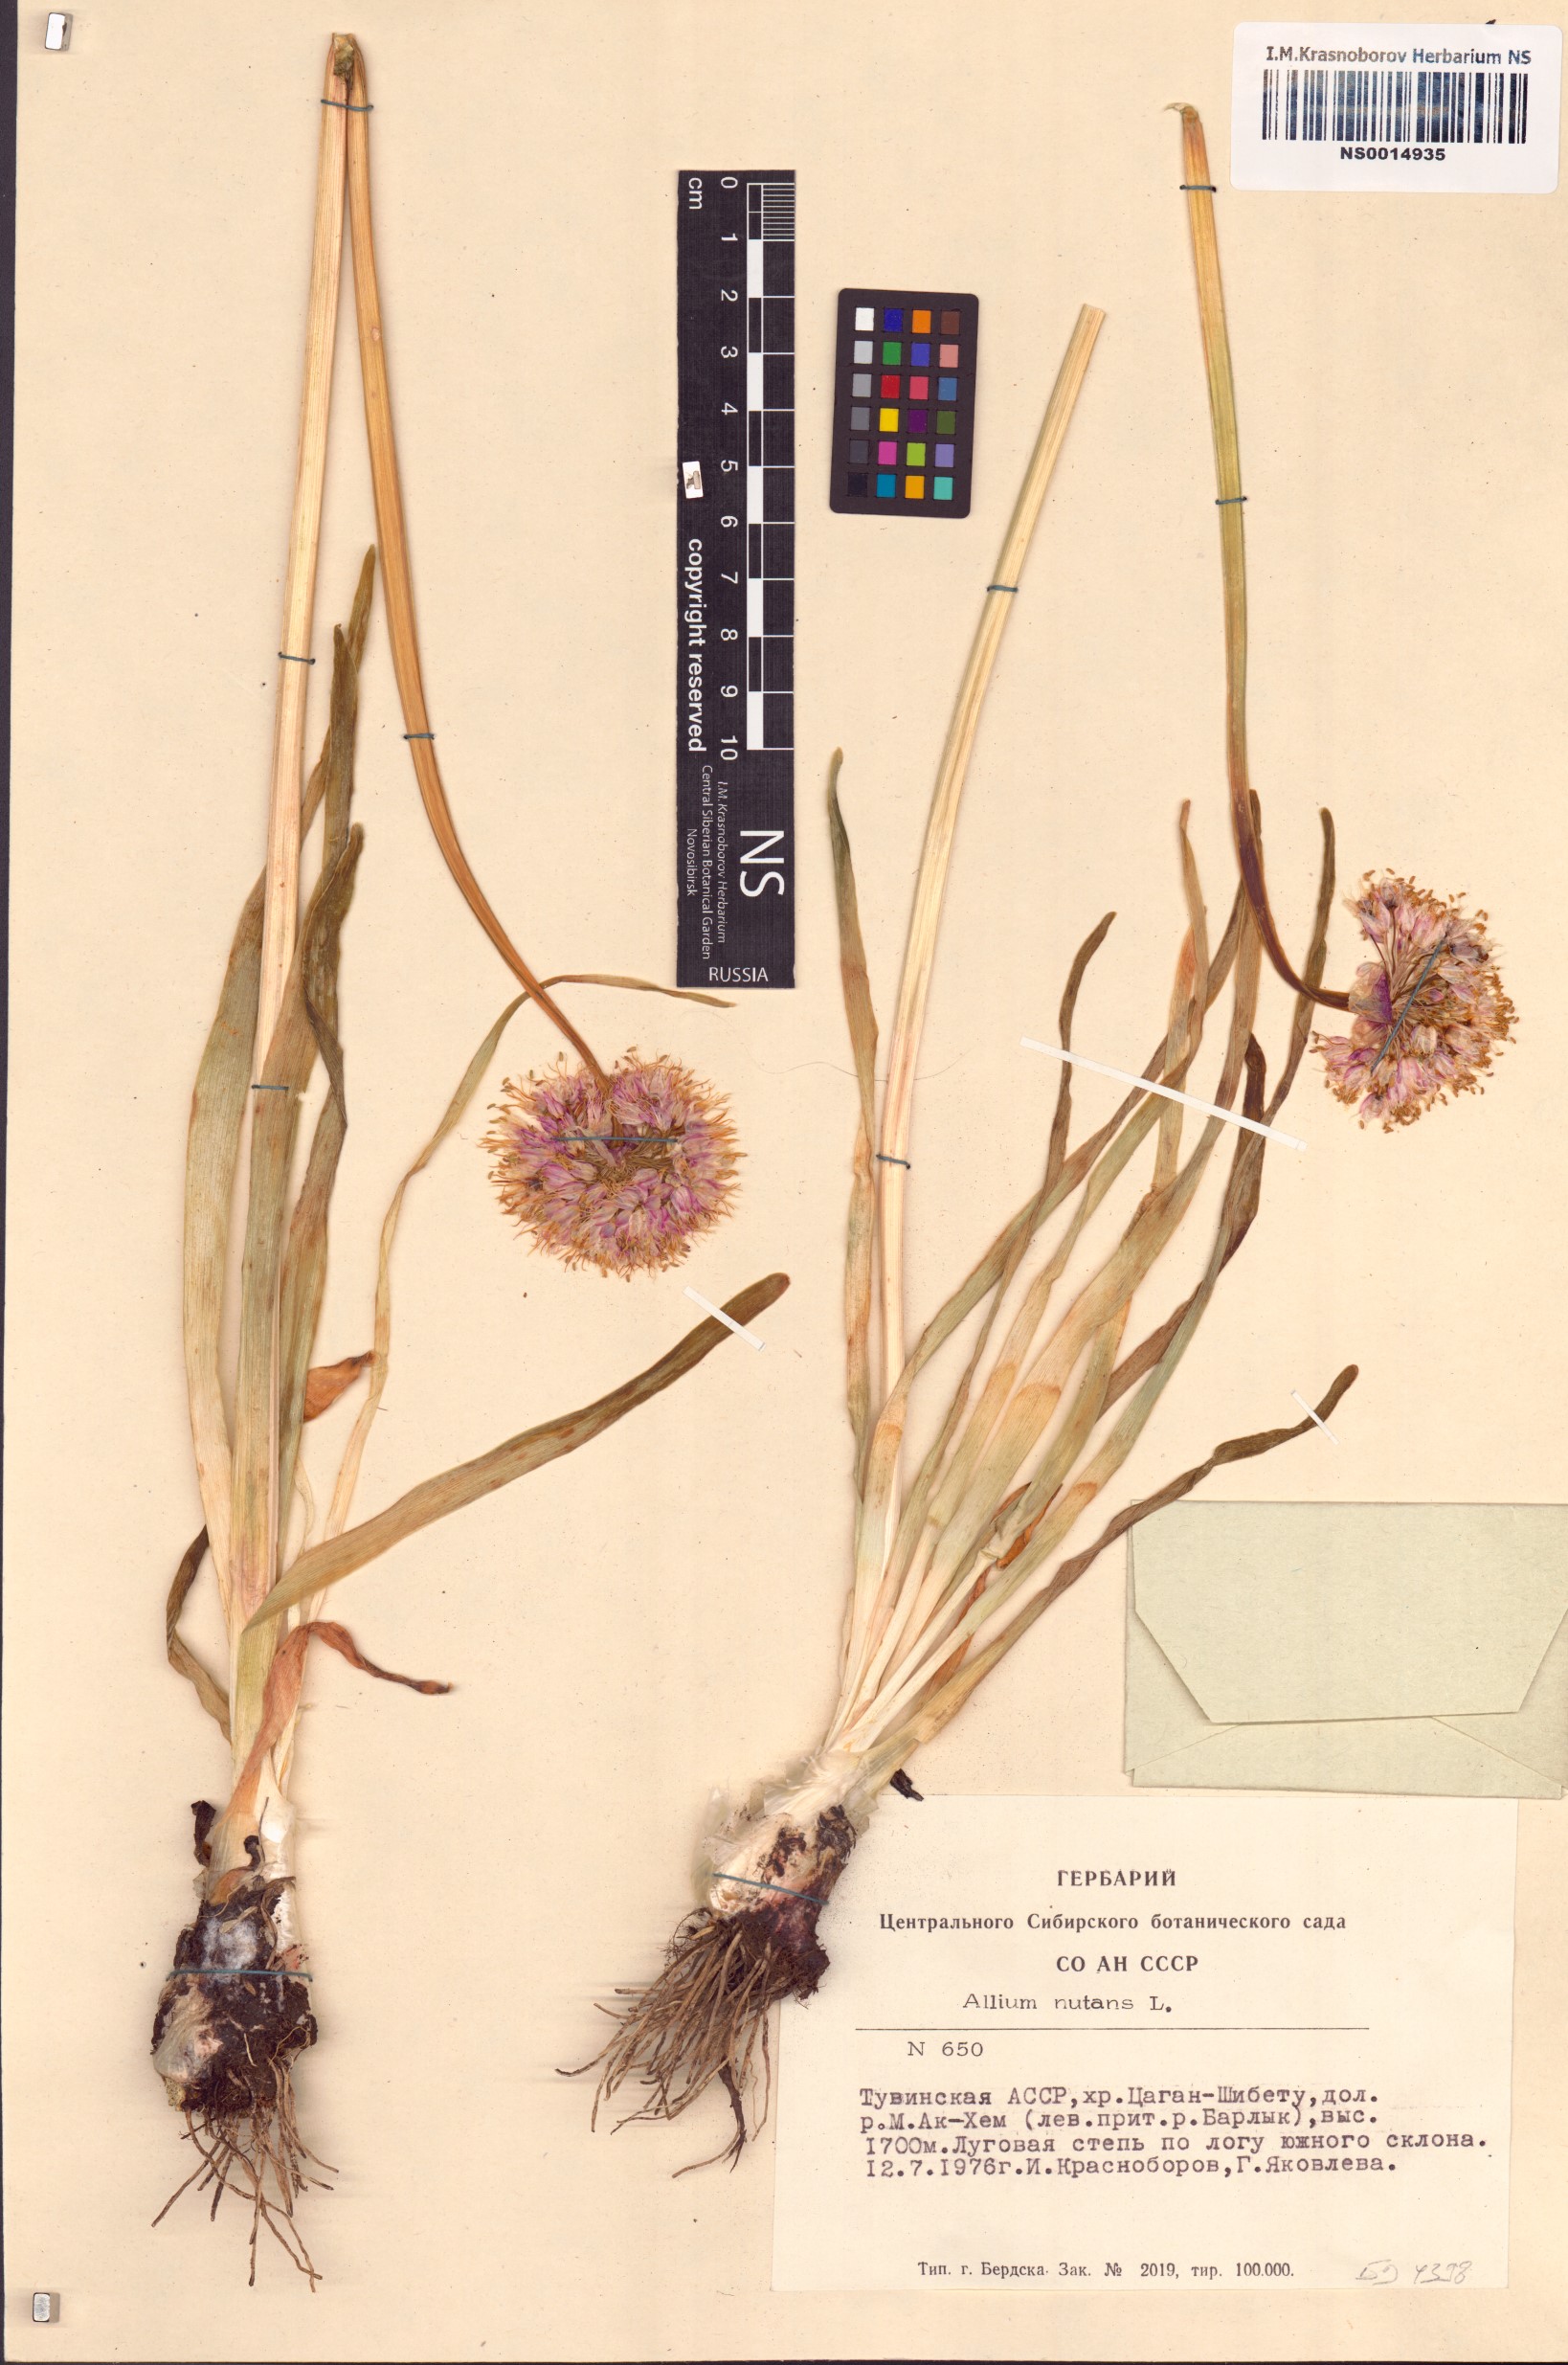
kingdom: Plantae
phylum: Tracheophyta
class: Liliopsida
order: Asparagales
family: Amaryllidaceae
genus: Allium
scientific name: Allium nutans
